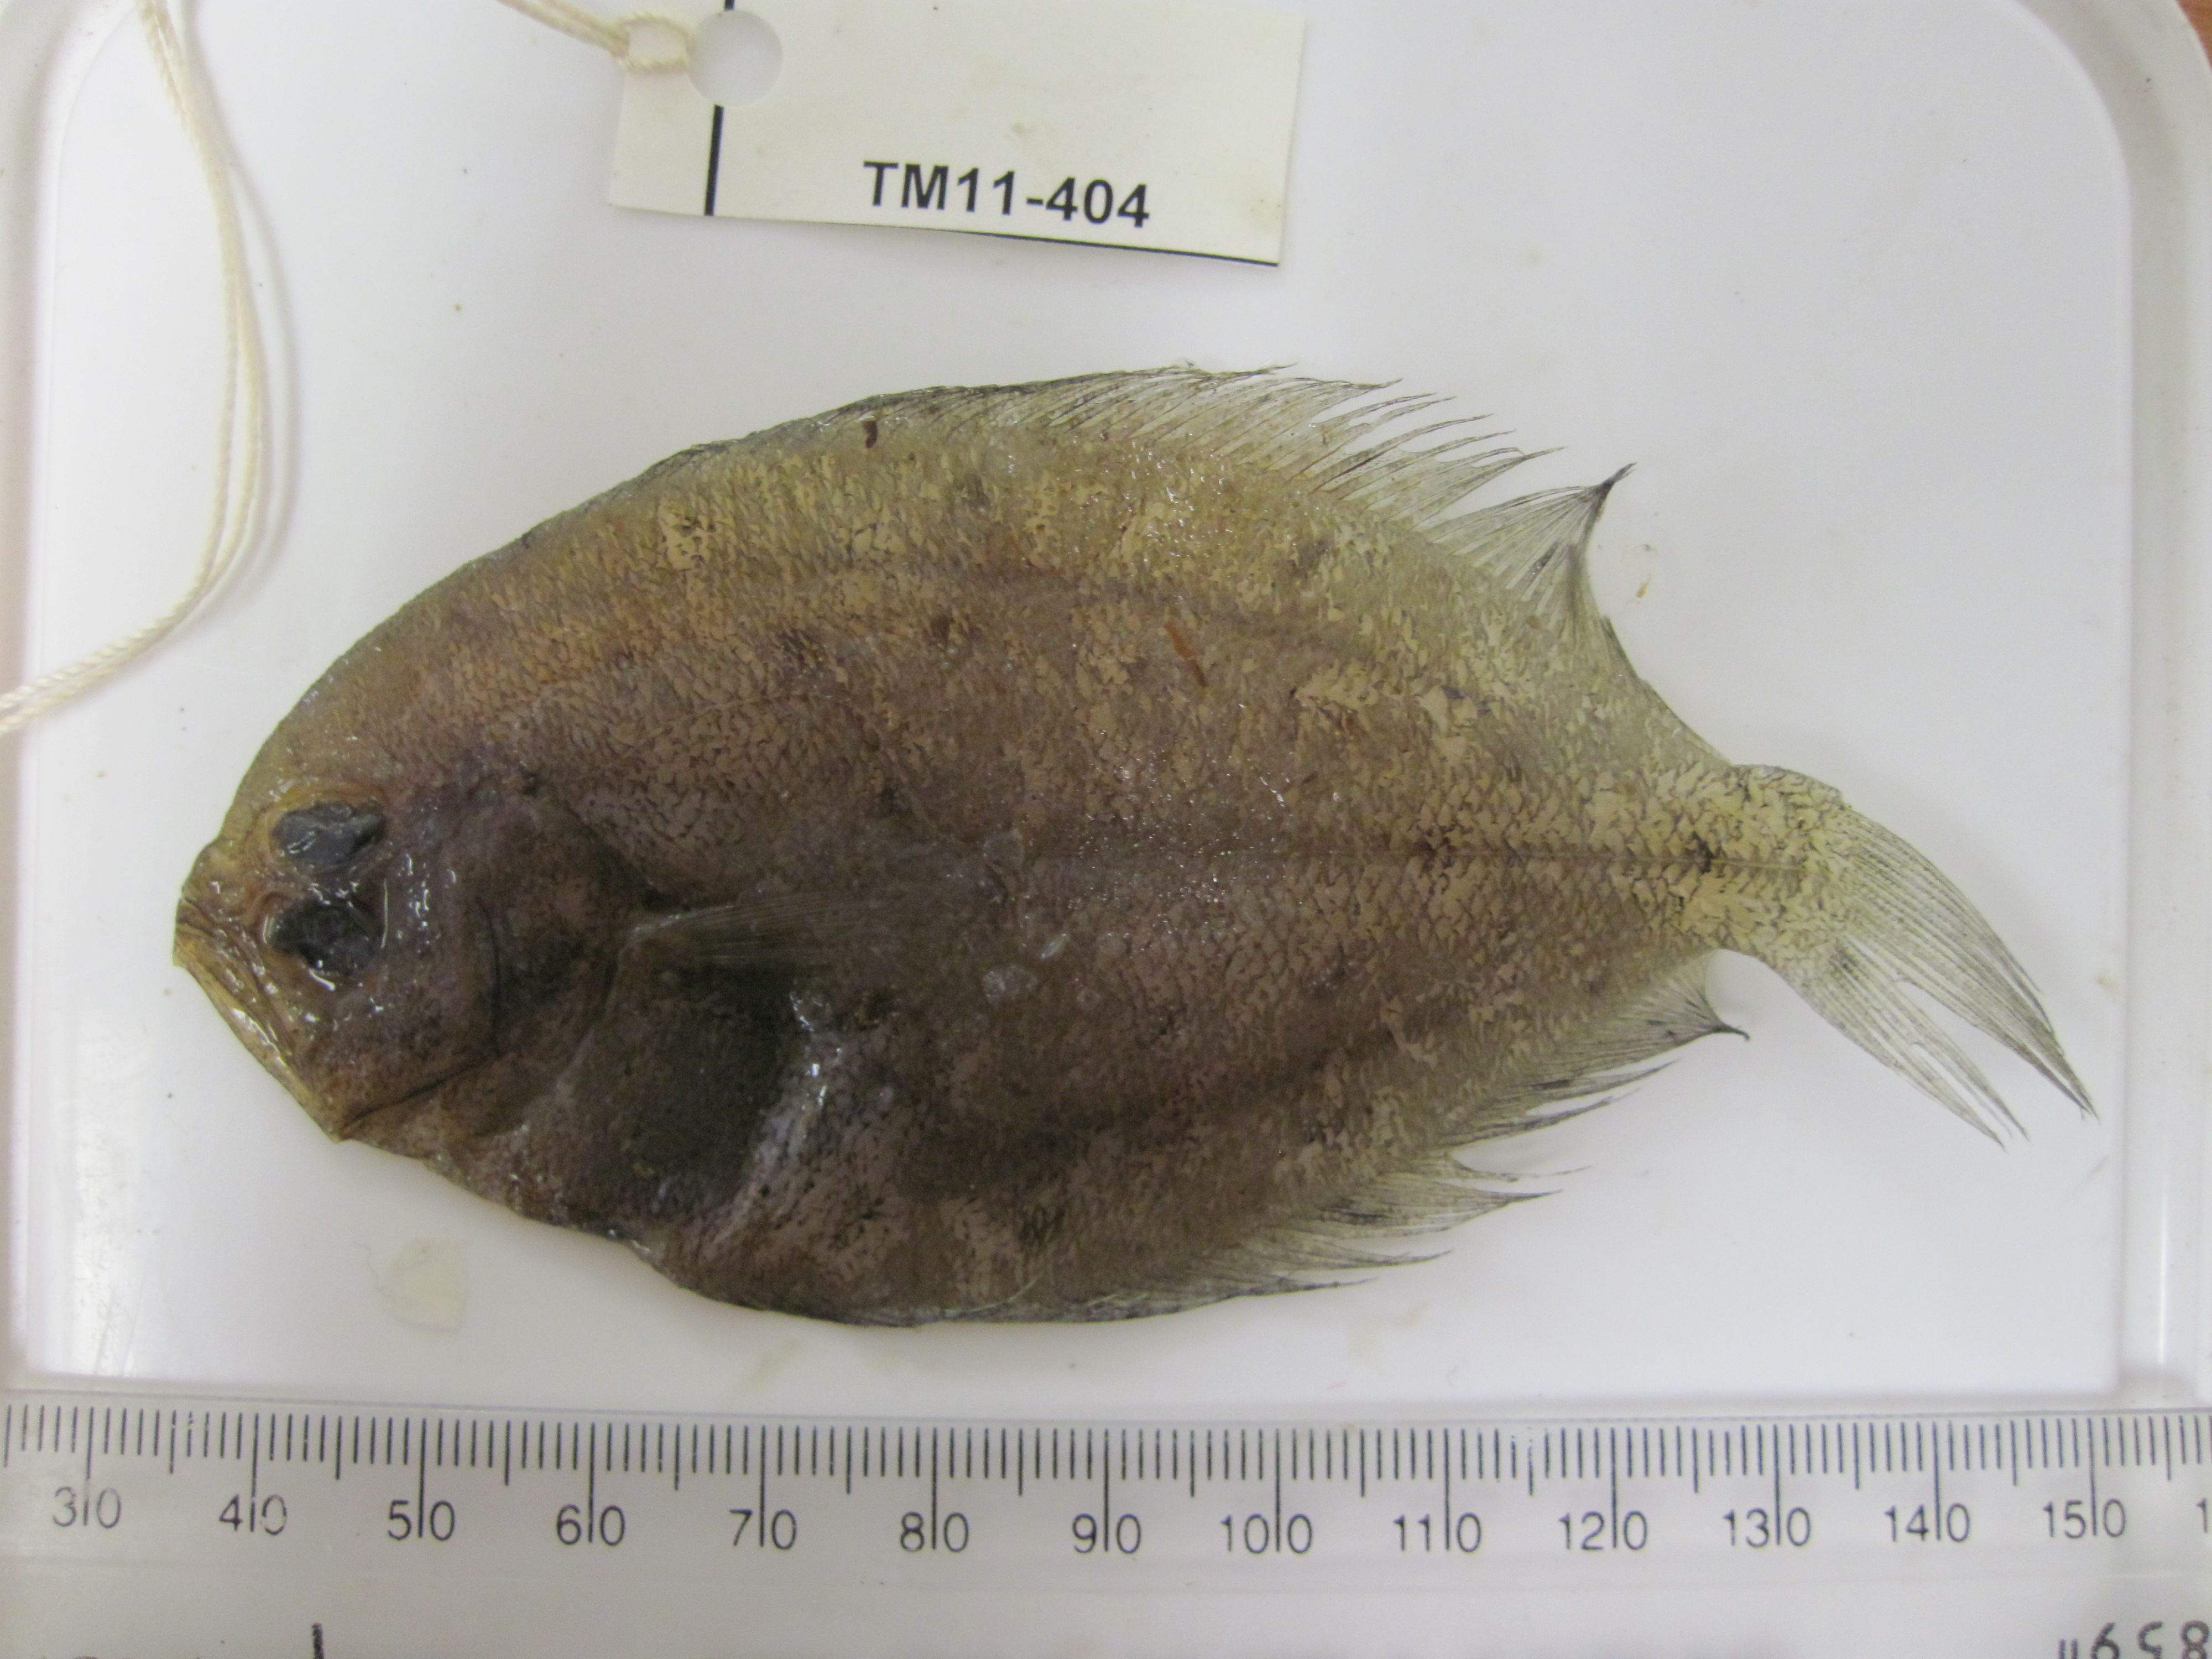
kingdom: Animalia
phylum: Chordata
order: Pleuronectiformes
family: Paralichthyidae
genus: Pseudorhombus
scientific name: Pseudorhombus elevatus
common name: Deep flounder
